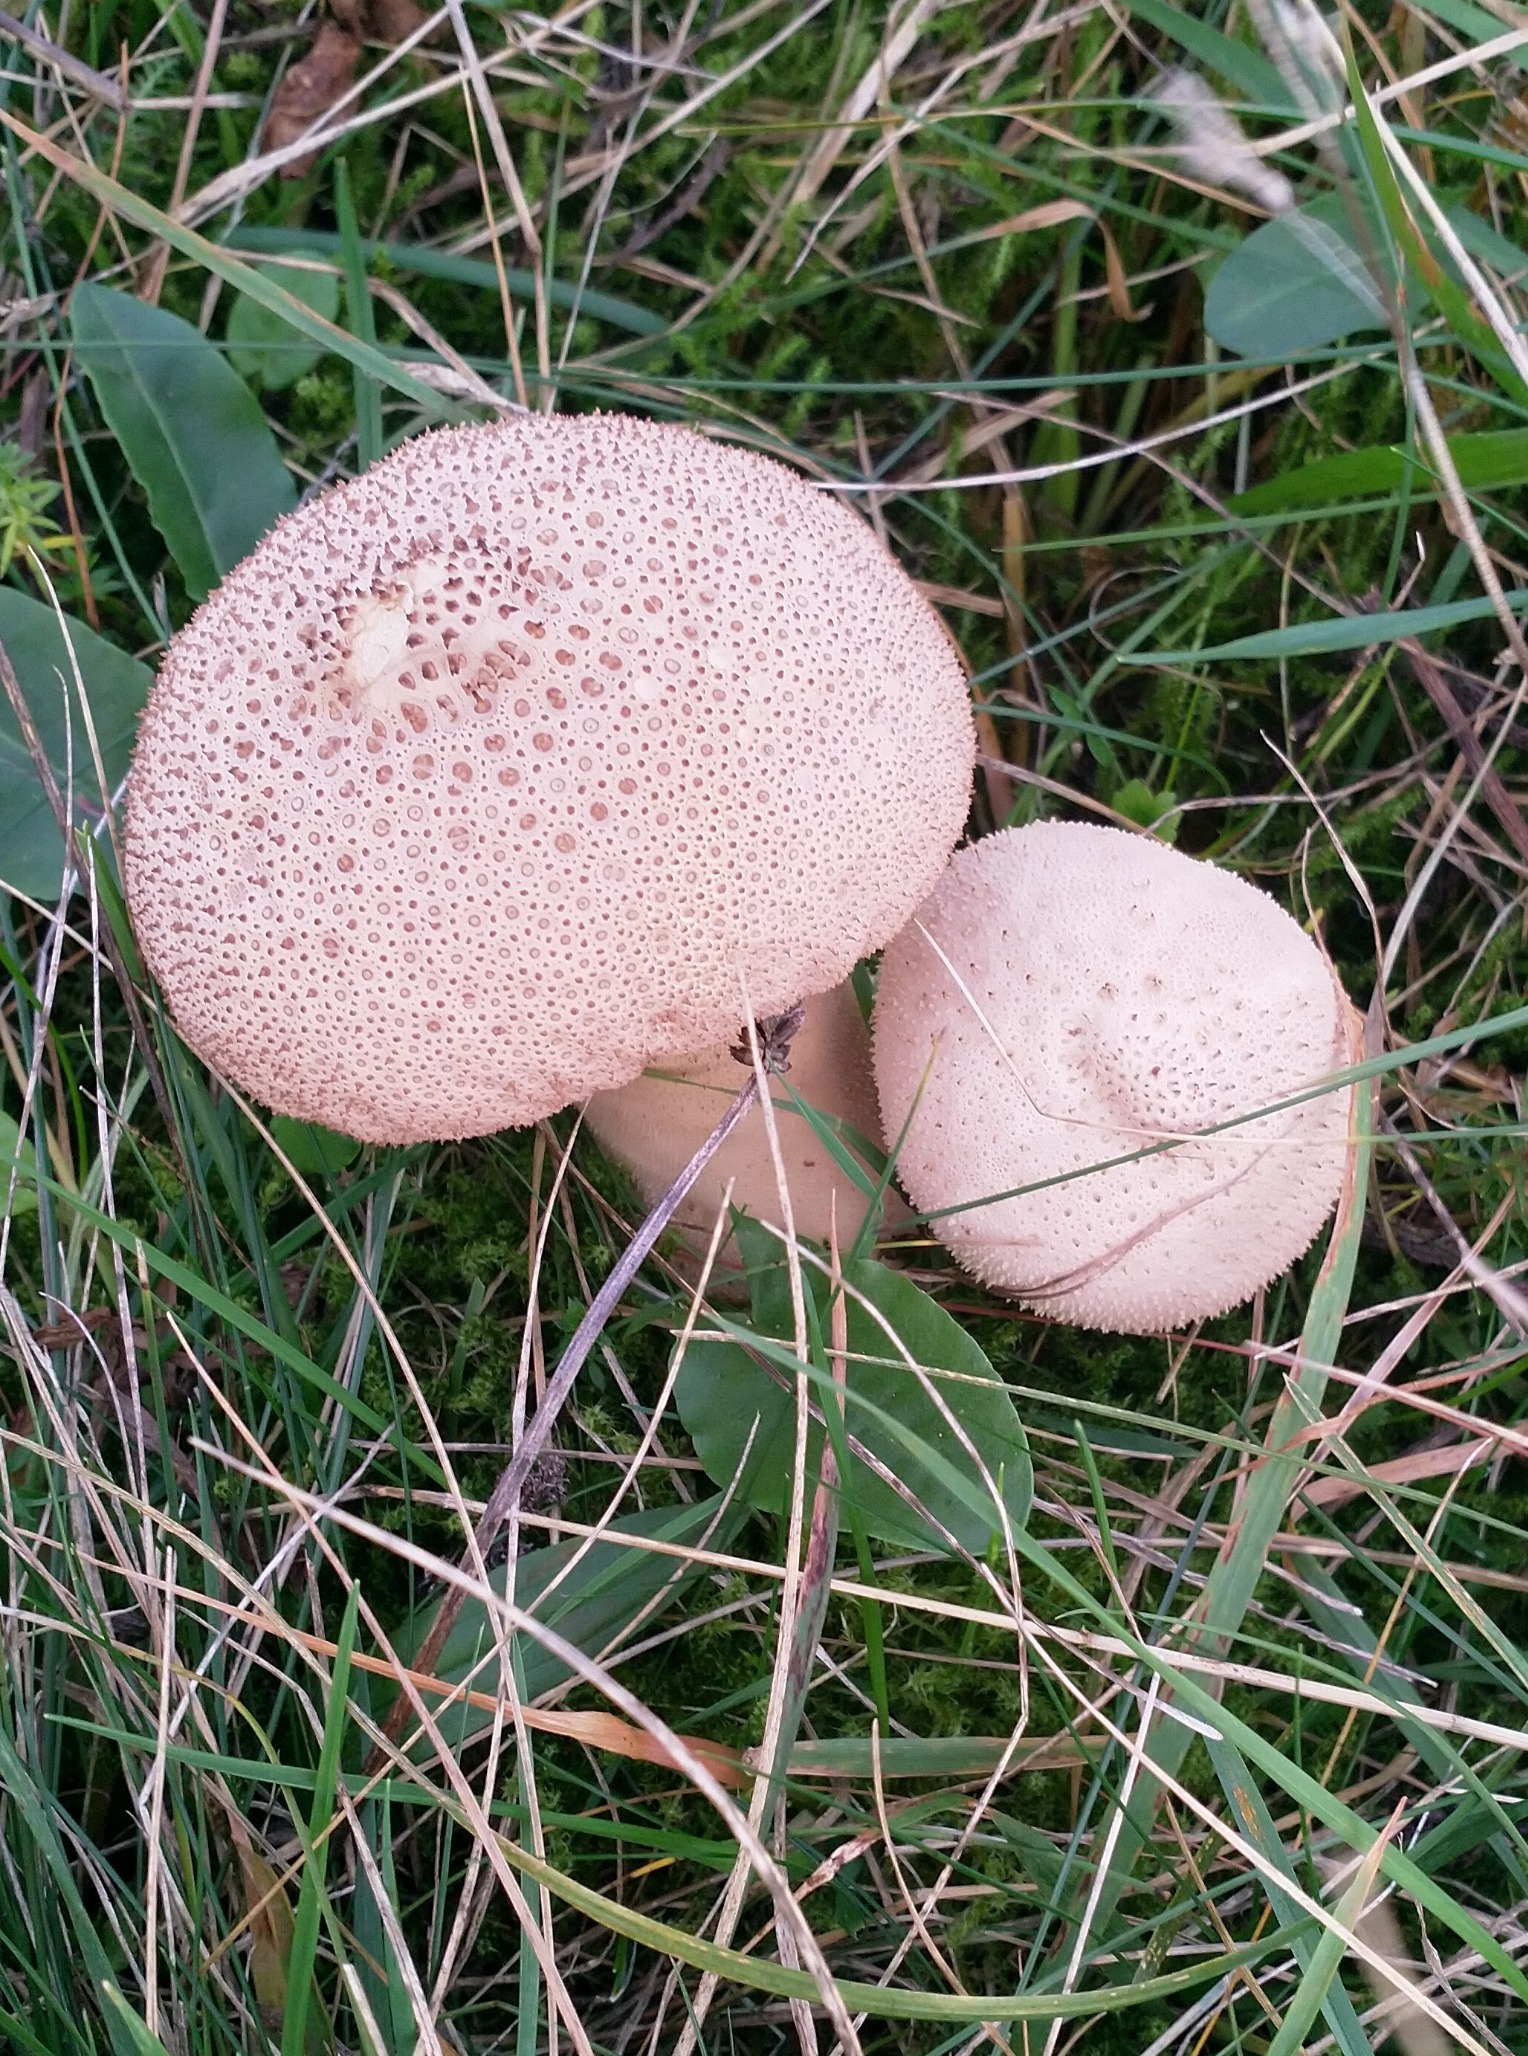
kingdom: Fungi
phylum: Basidiomycota
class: Agaricomycetes
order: Agaricales
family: Lycoperdaceae
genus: Lycoperdon
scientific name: Lycoperdon excipuliforme
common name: Højstokket støvbold
